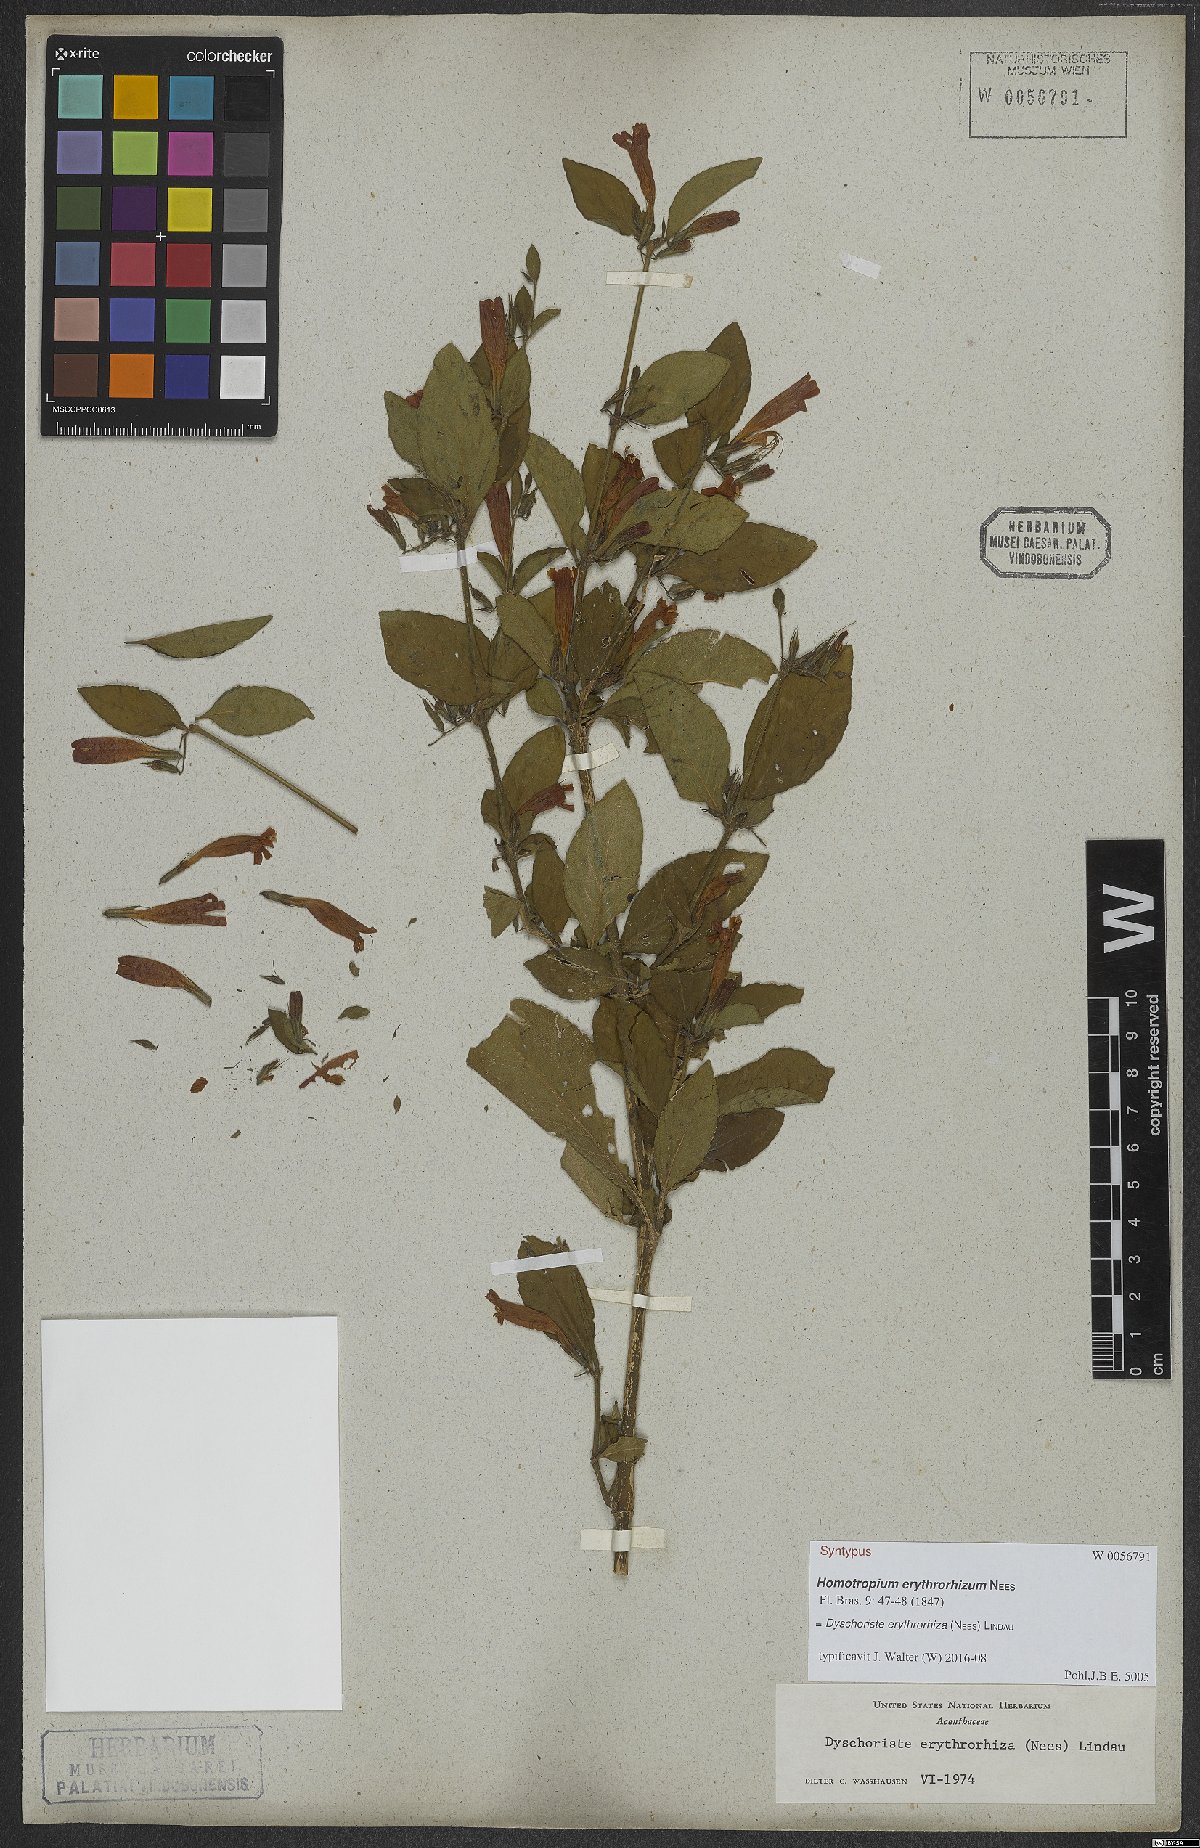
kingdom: Plantae
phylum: Tracheophyta
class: Magnoliopsida
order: Lamiales
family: Acanthaceae
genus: Dyschoriste
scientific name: Dyschoriste erythrorhiza
